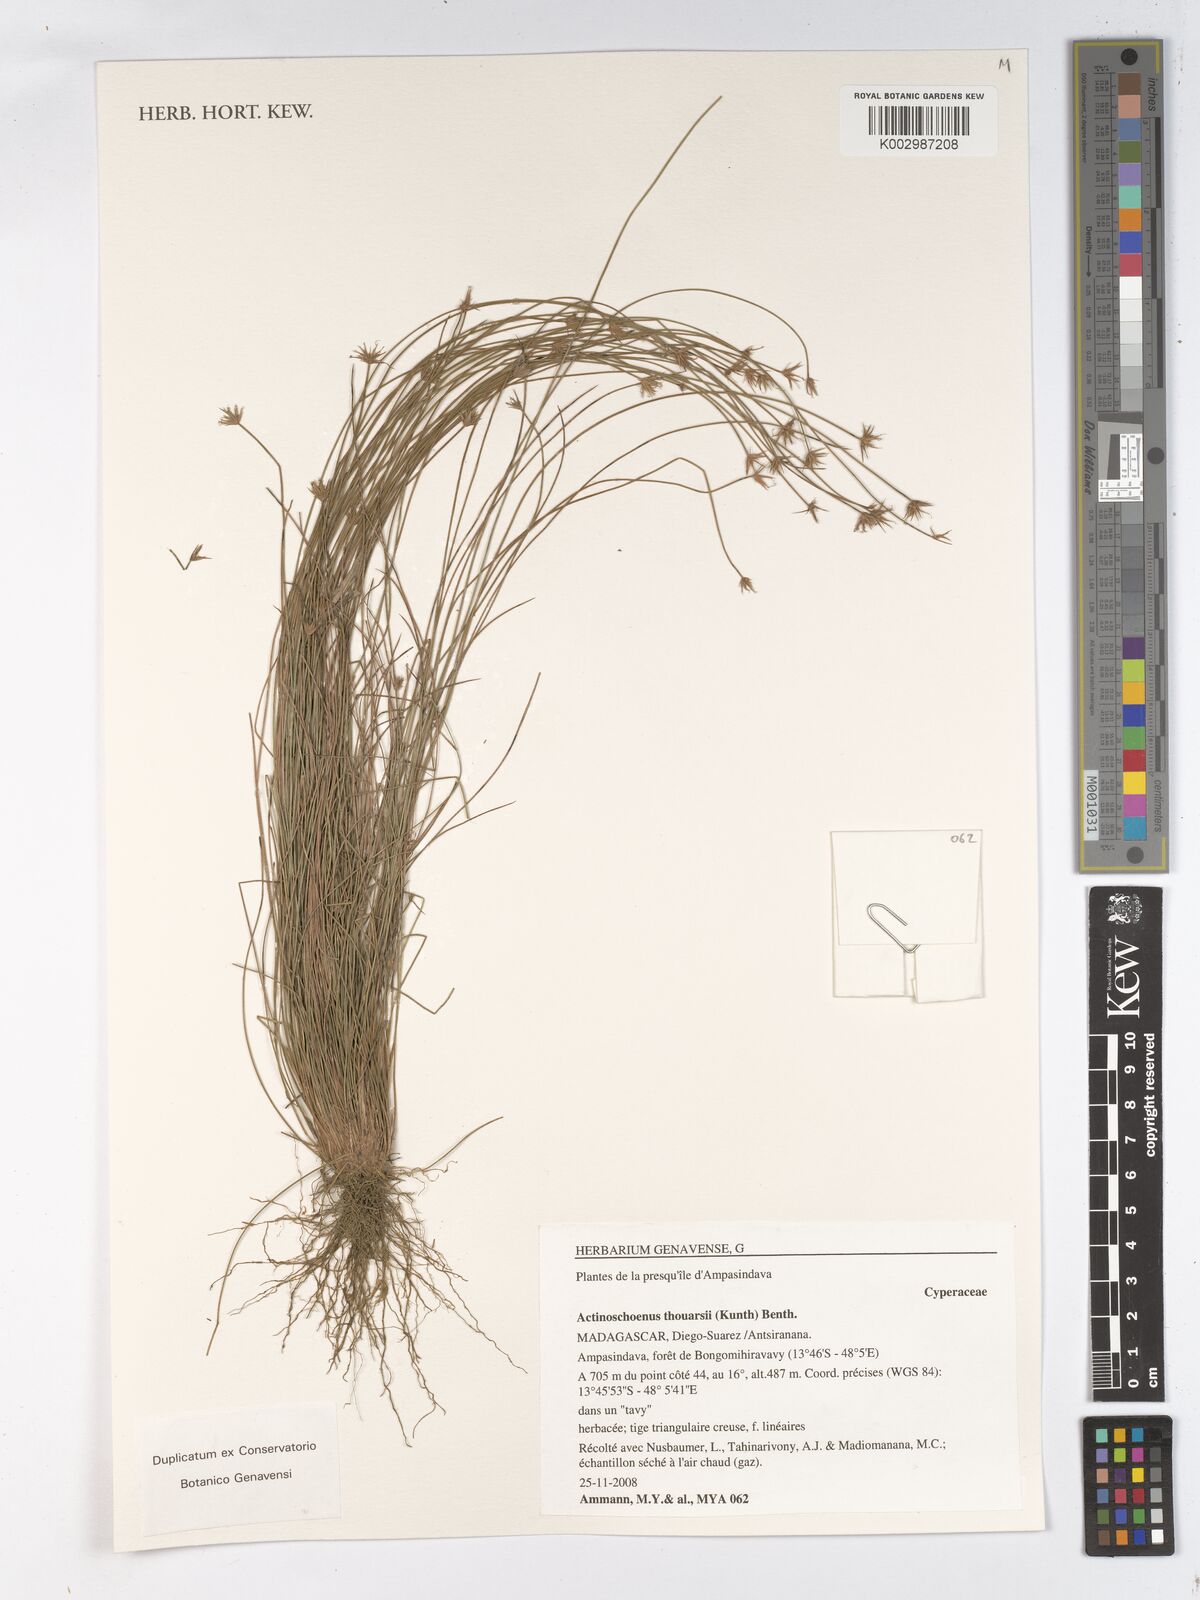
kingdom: Plantae
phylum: Tracheophyta
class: Liliopsida
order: Poales
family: Cyperaceae
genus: Actinoschoenus
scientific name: Actinoschoenus aphyllus
